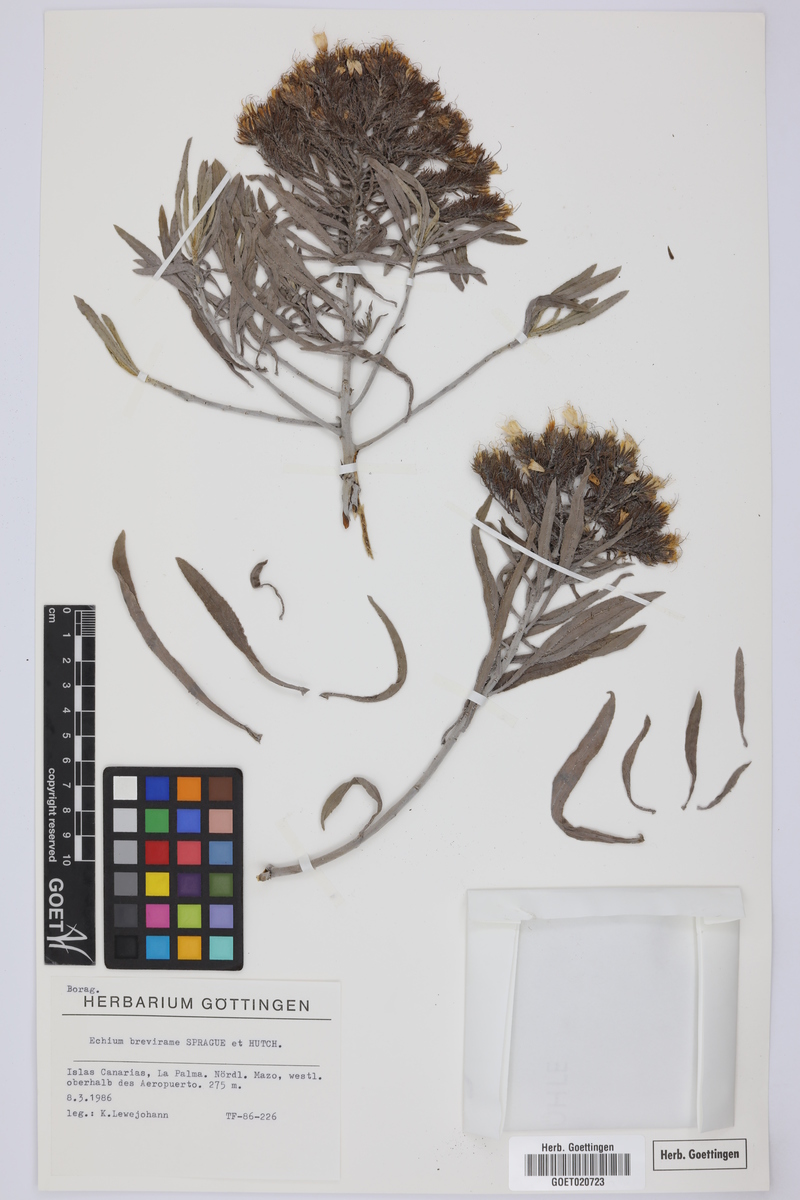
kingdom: Plantae
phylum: Tracheophyta
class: Magnoliopsida
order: Boraginales
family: Boraginaceae
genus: Echium
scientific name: Echium brevirame
